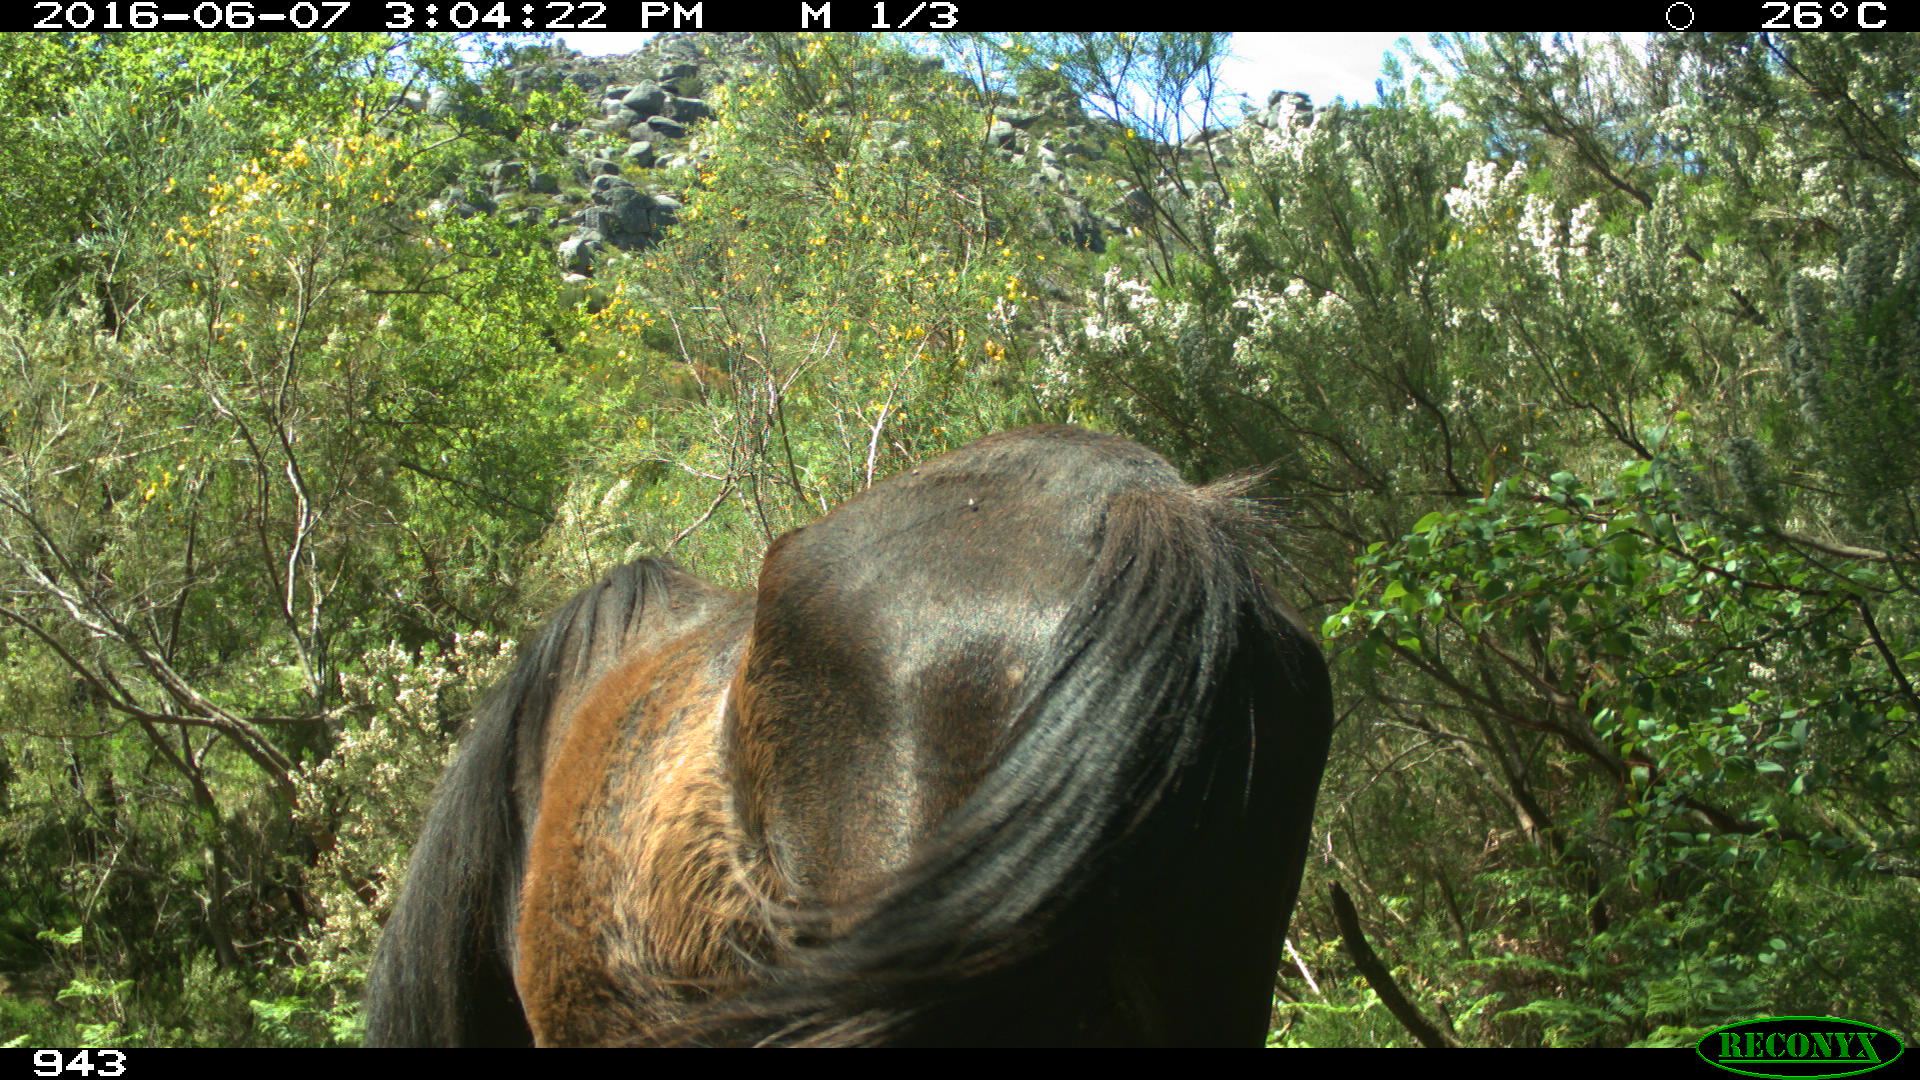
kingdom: Animalia
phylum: Chordata
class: Mammalia
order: Perissodactyla
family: Equidae
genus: Equus
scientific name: Equus caballus
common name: Horse
